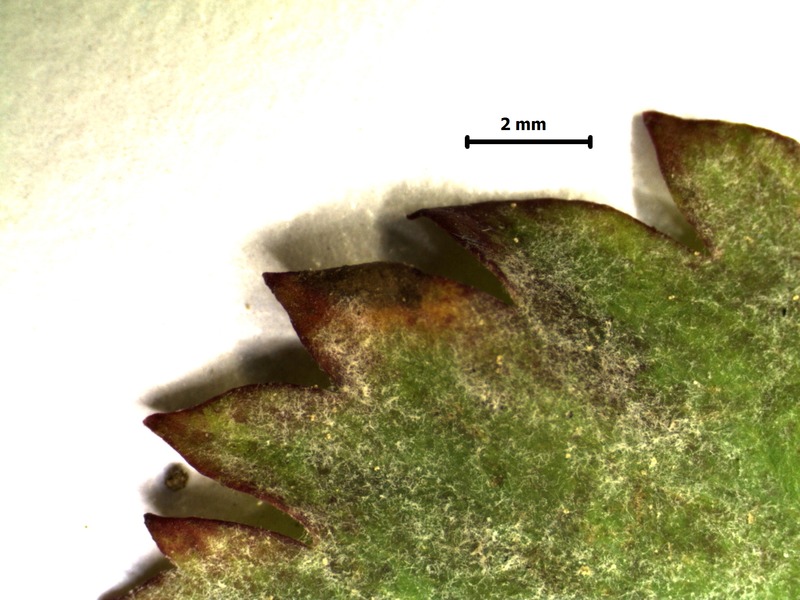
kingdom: Fungi
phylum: Ascomycota
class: Leotiomycetes
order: Helotiales
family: Erysiphaceae
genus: Podosphaera
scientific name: Podosphaera ferruginea
